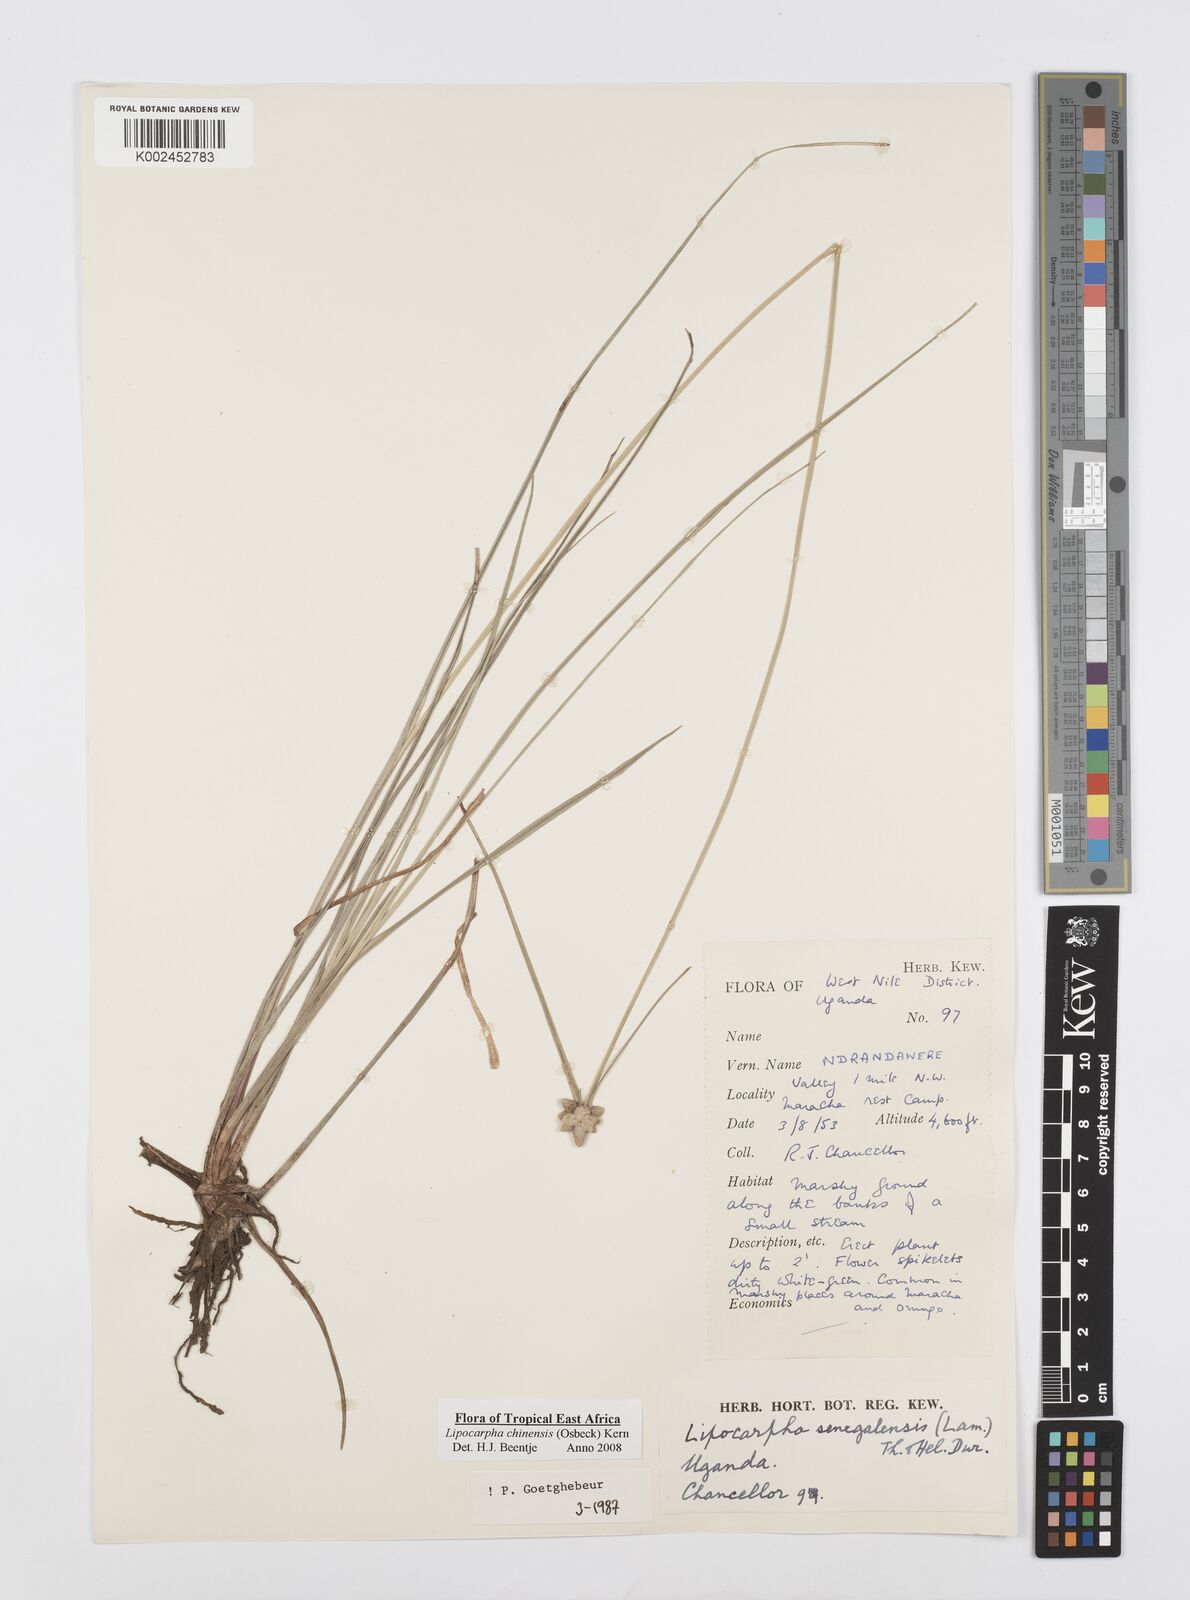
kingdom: Plantae
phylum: Tracheophyta
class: Liliopsida
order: Poales
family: Cyperaceae
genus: Cyperus
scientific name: Cyperus albescens
